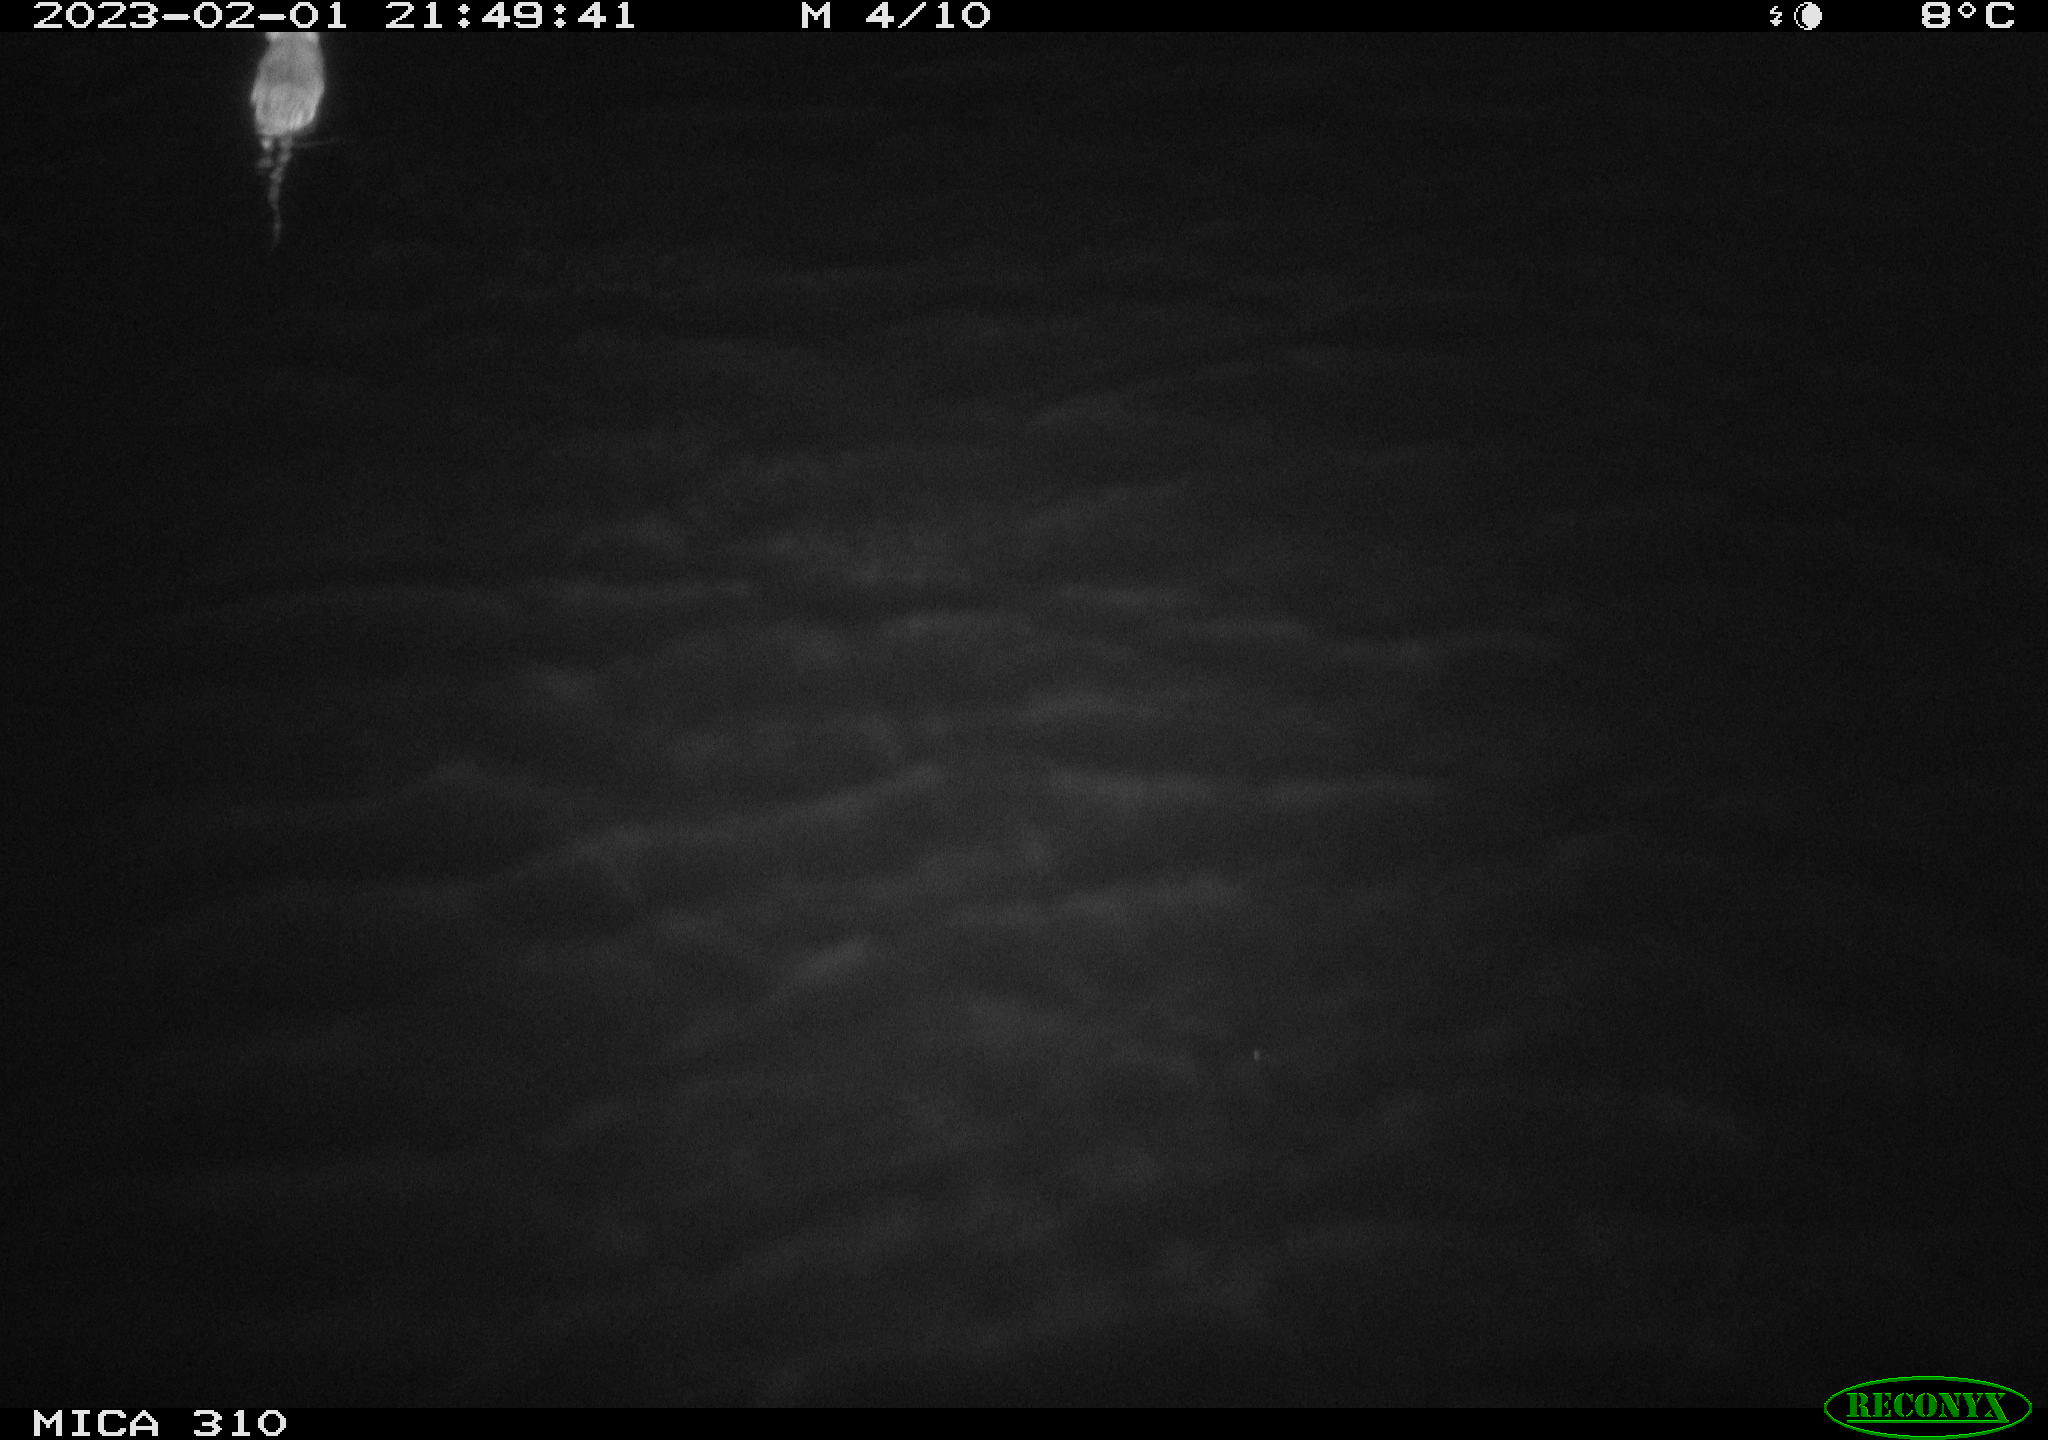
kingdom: Animalia
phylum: Chordata
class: Mammalia
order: Rodentia
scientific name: Rodentia
